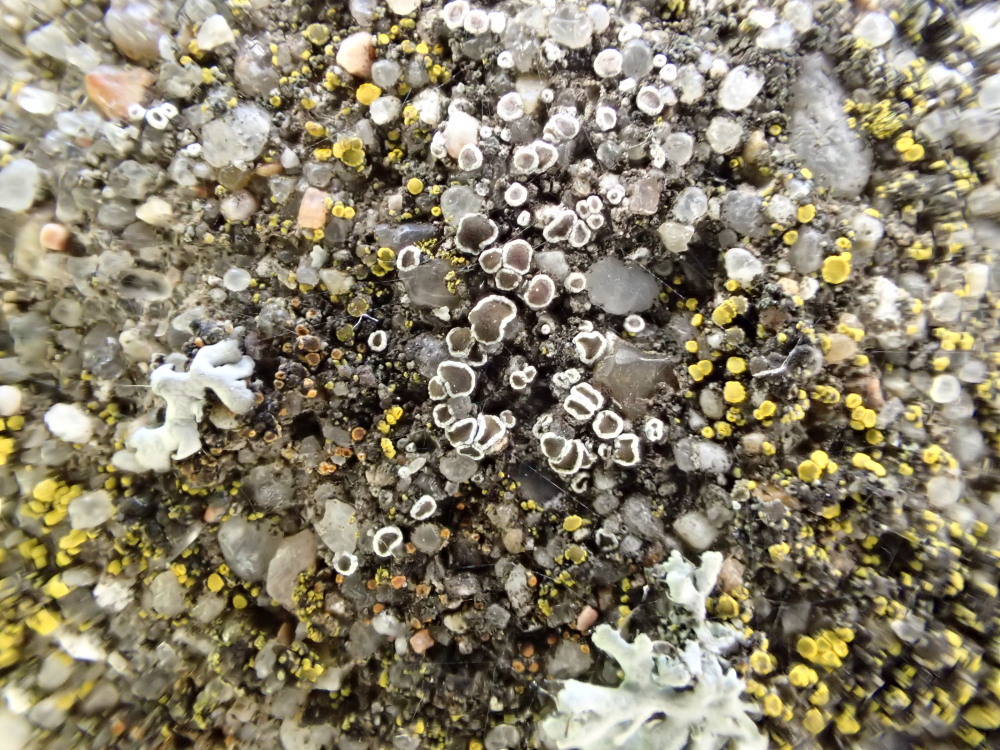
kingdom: Fungi
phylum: Ascomycota
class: Lecanoromycetes
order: Lecanorales
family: Lecanoraceae
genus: Polyozosia
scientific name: Polyozosia dispersa
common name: spredt kantskivelav
